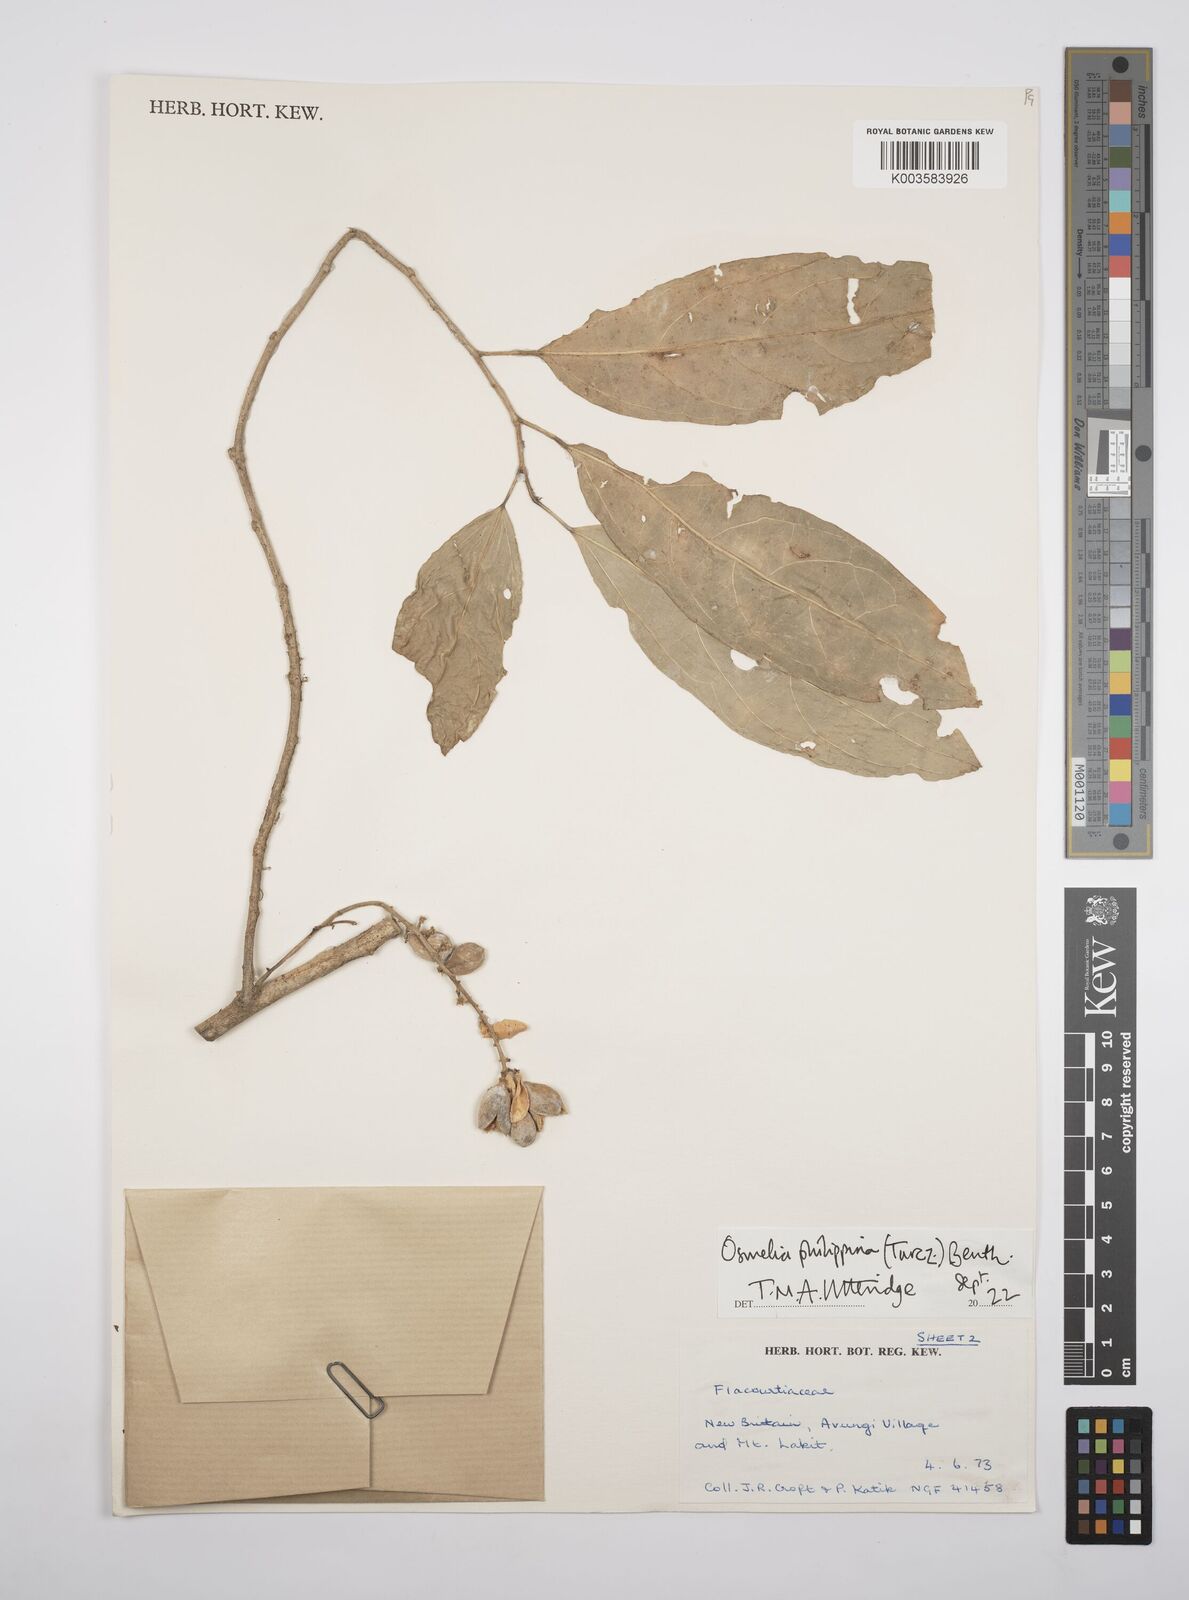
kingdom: Plantae
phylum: Tracheophyta
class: Magnoliopsida
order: Malpighiales
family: Salicaceae
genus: Osmelia
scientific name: Osmelia
